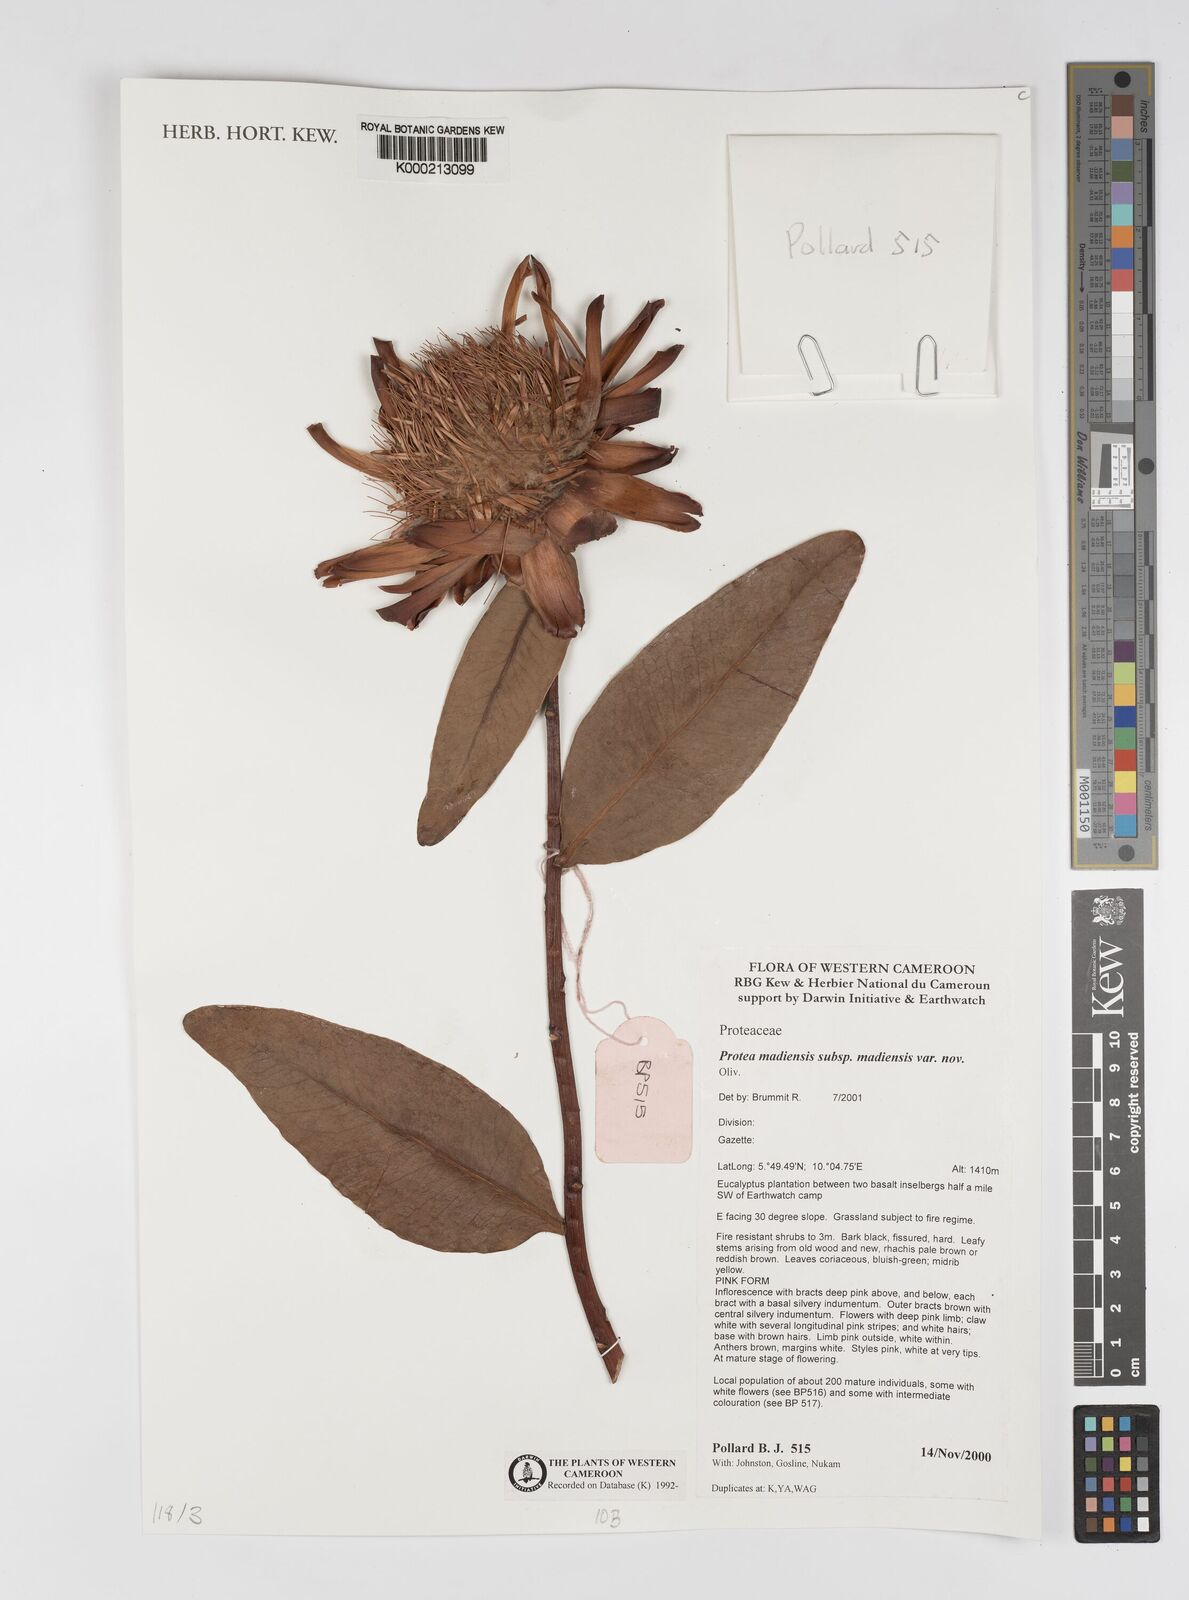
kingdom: Plantae
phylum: Tracheophyta
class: Magnoliopsida
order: Proteales
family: Proteaceae
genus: Protea
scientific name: Protea madiensis
